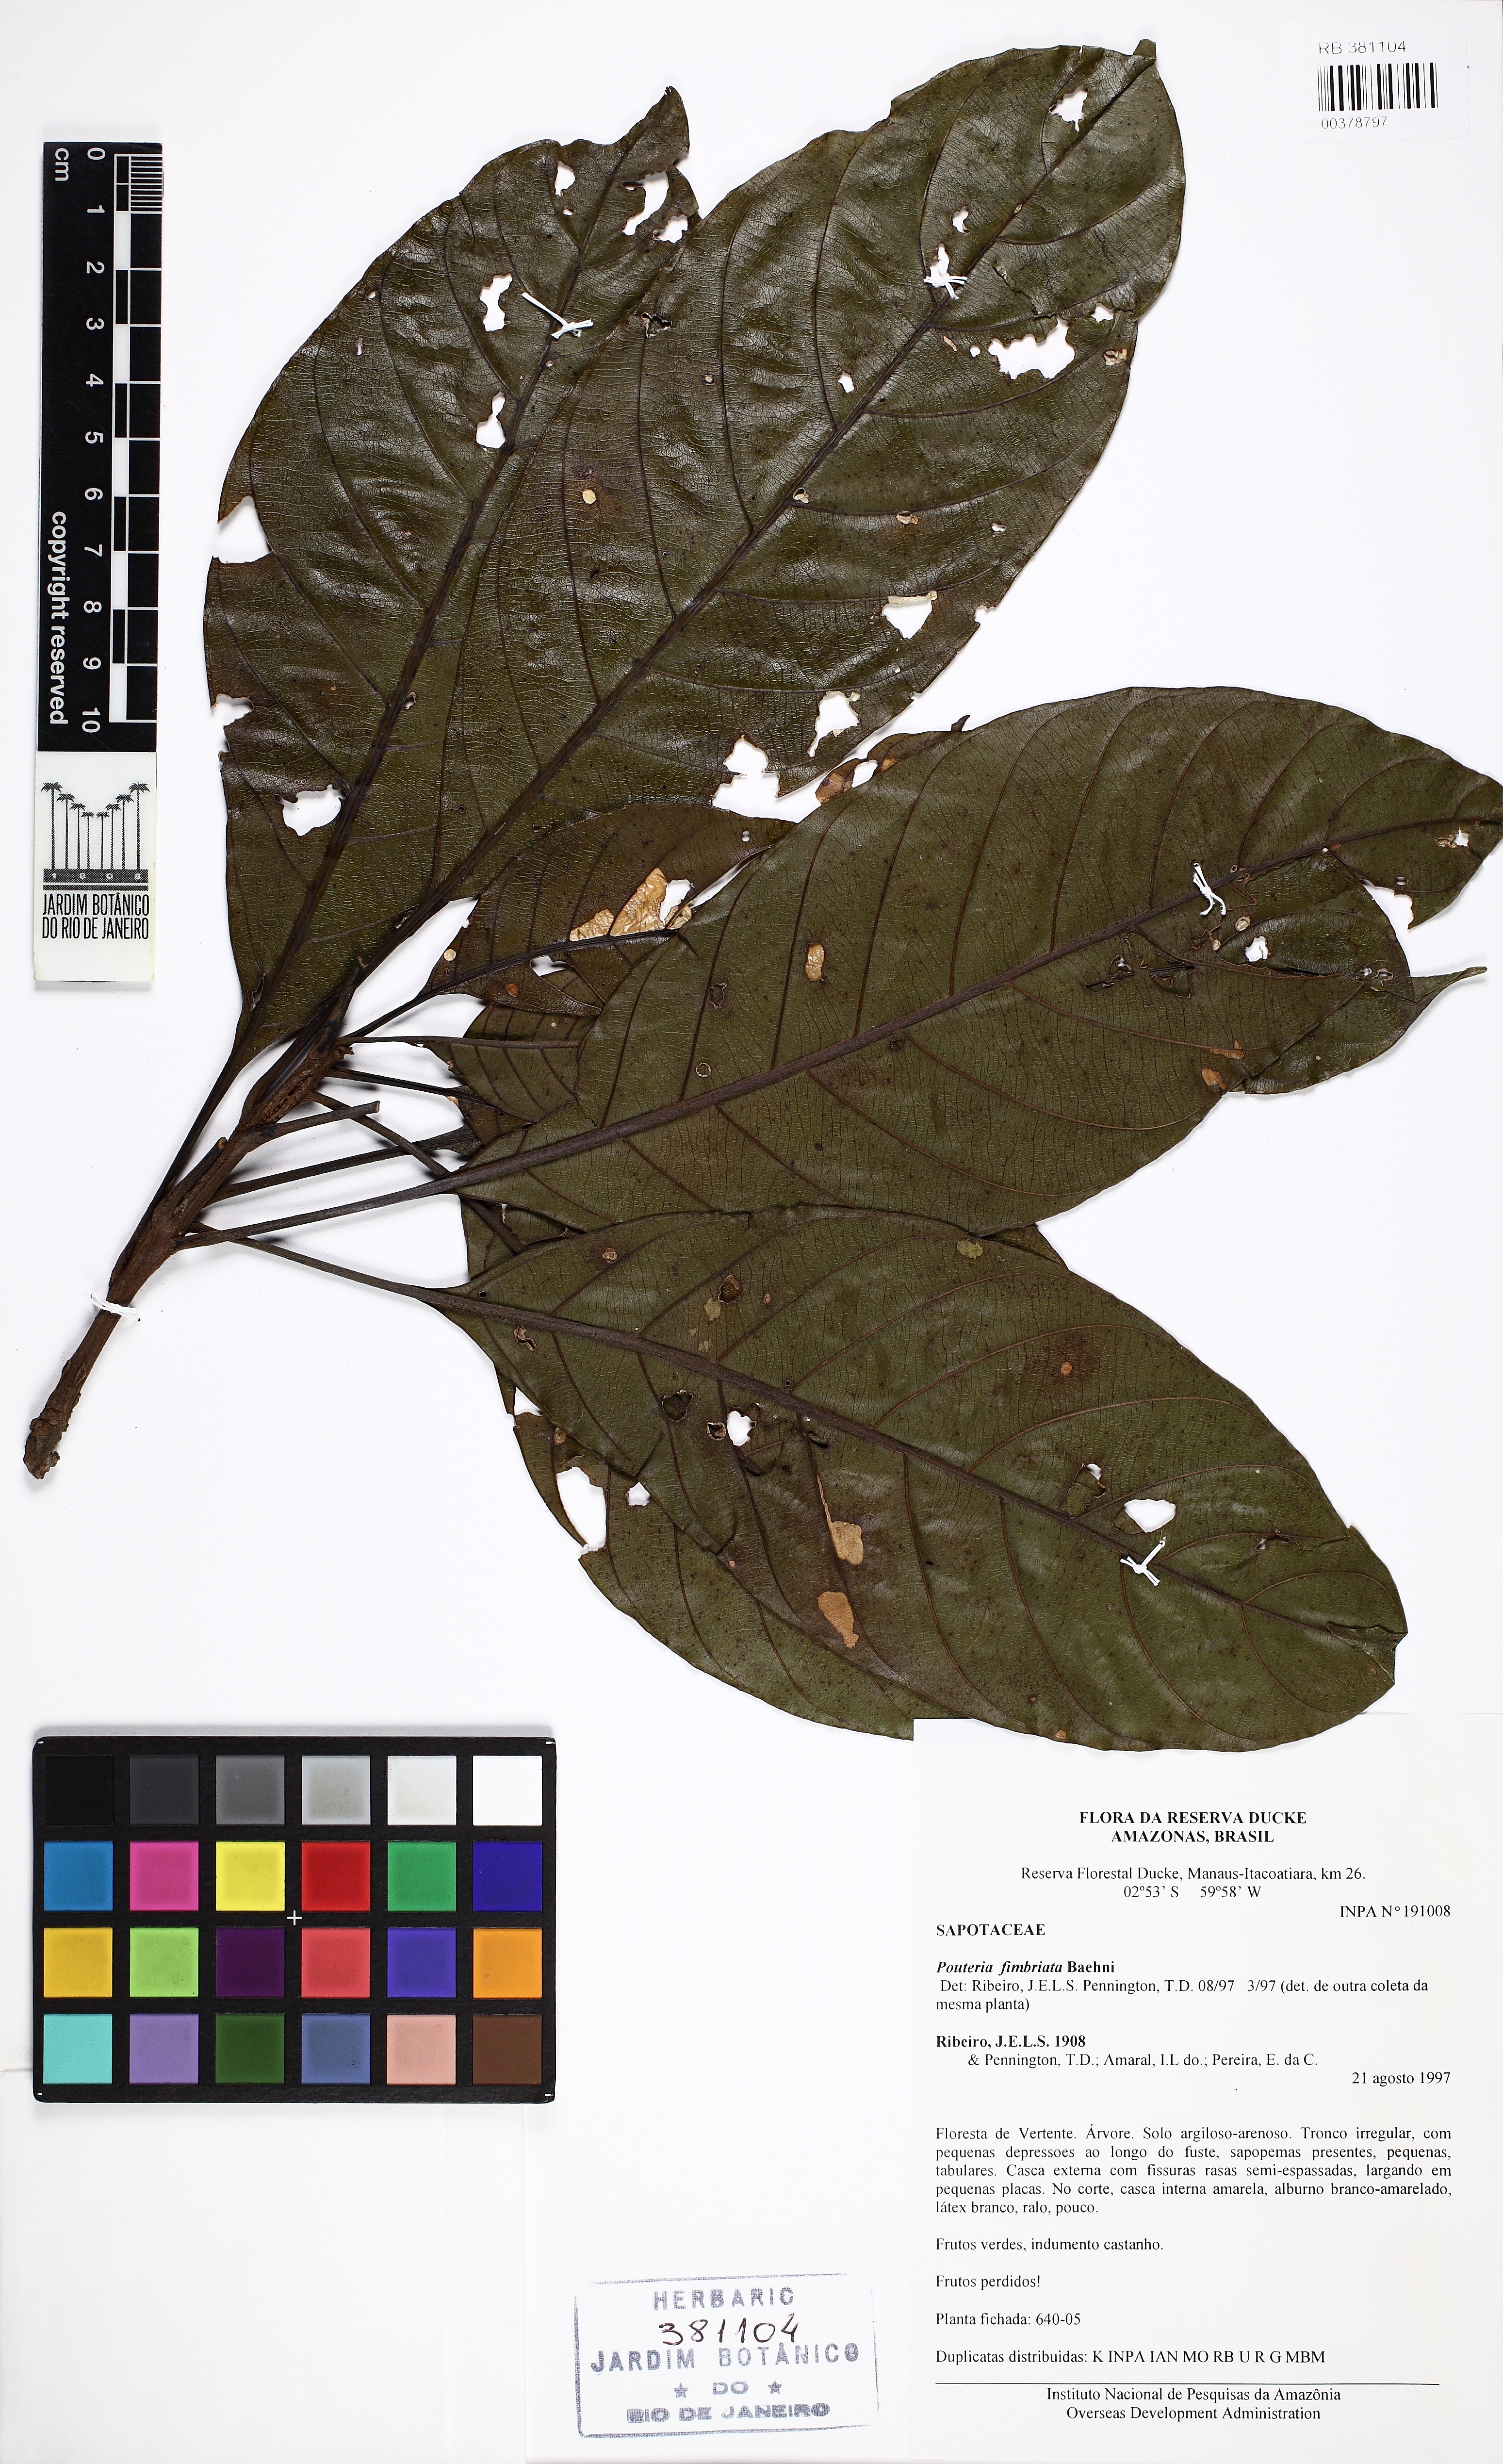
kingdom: Plantae
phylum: Tracheophyta
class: Magnoliopsida
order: Ericales
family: Sapotaceae
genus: Pouteria
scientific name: Pouteria fimbriata
